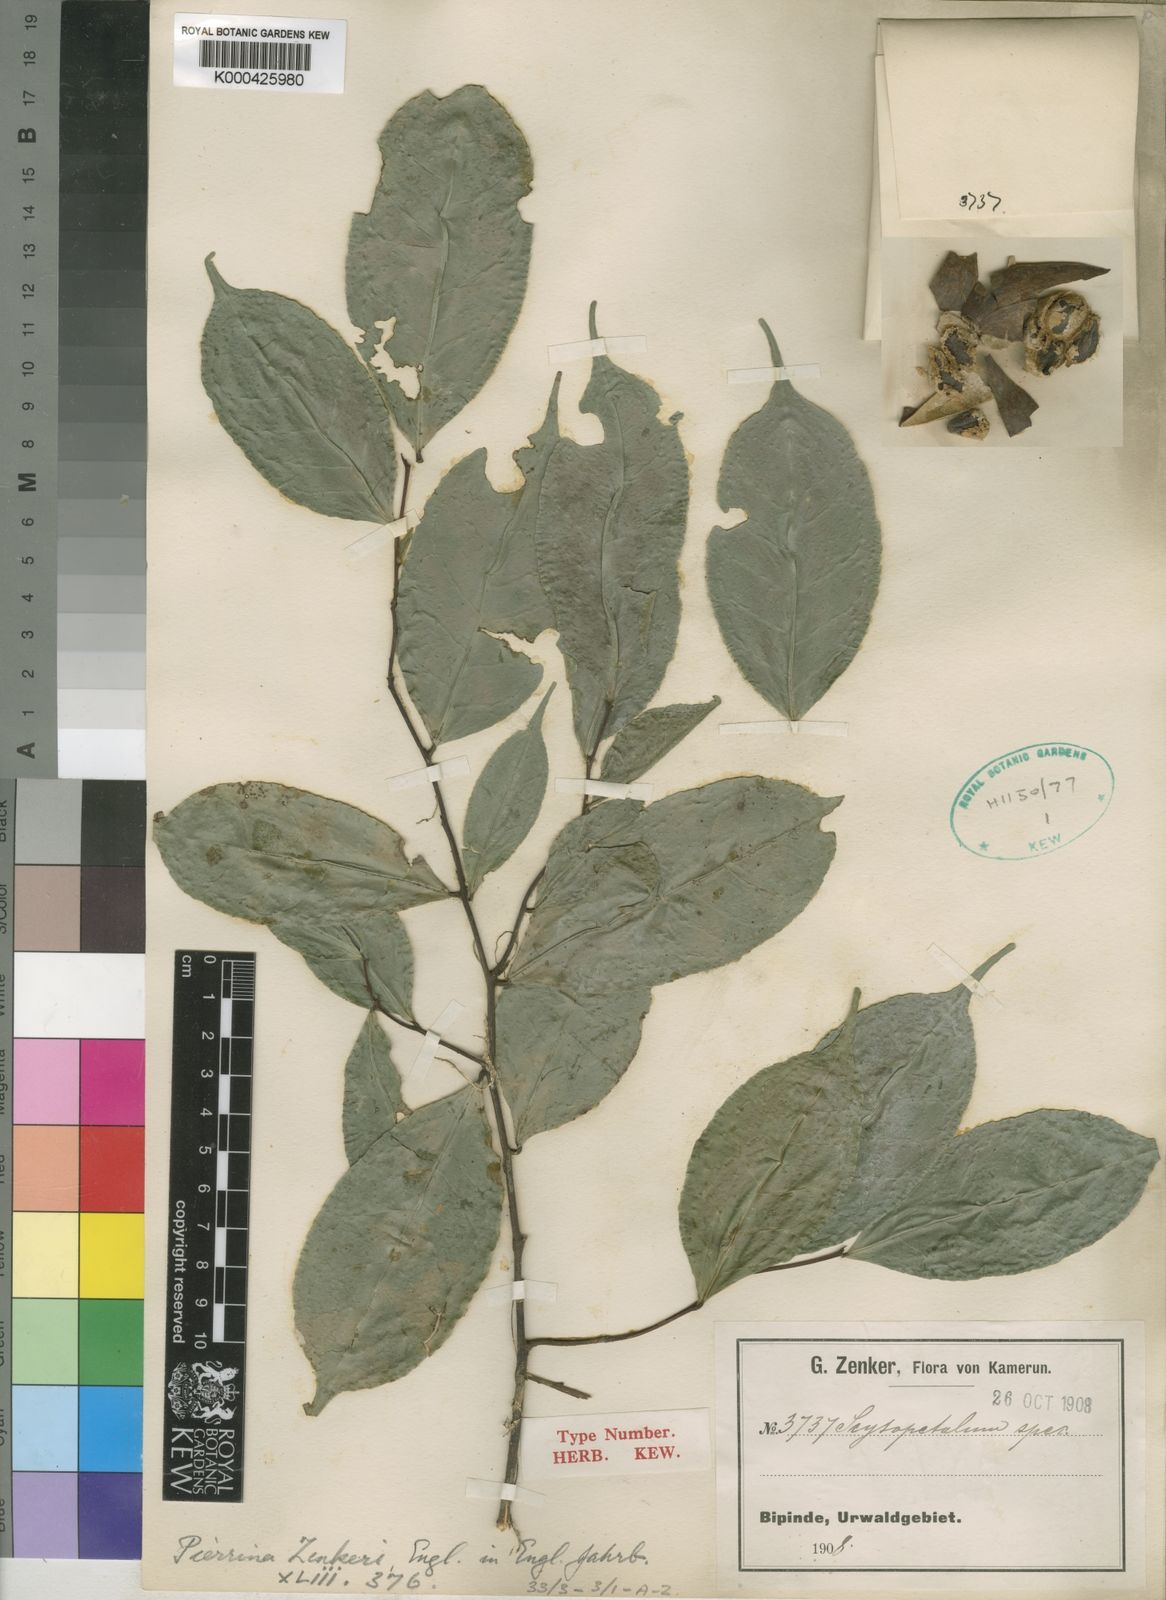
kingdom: Plantae
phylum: Tracheophyta
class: Magnoliopsida
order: Ericales
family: Lecythidaceae
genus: Pierrina
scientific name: Pierrina zenkeri
